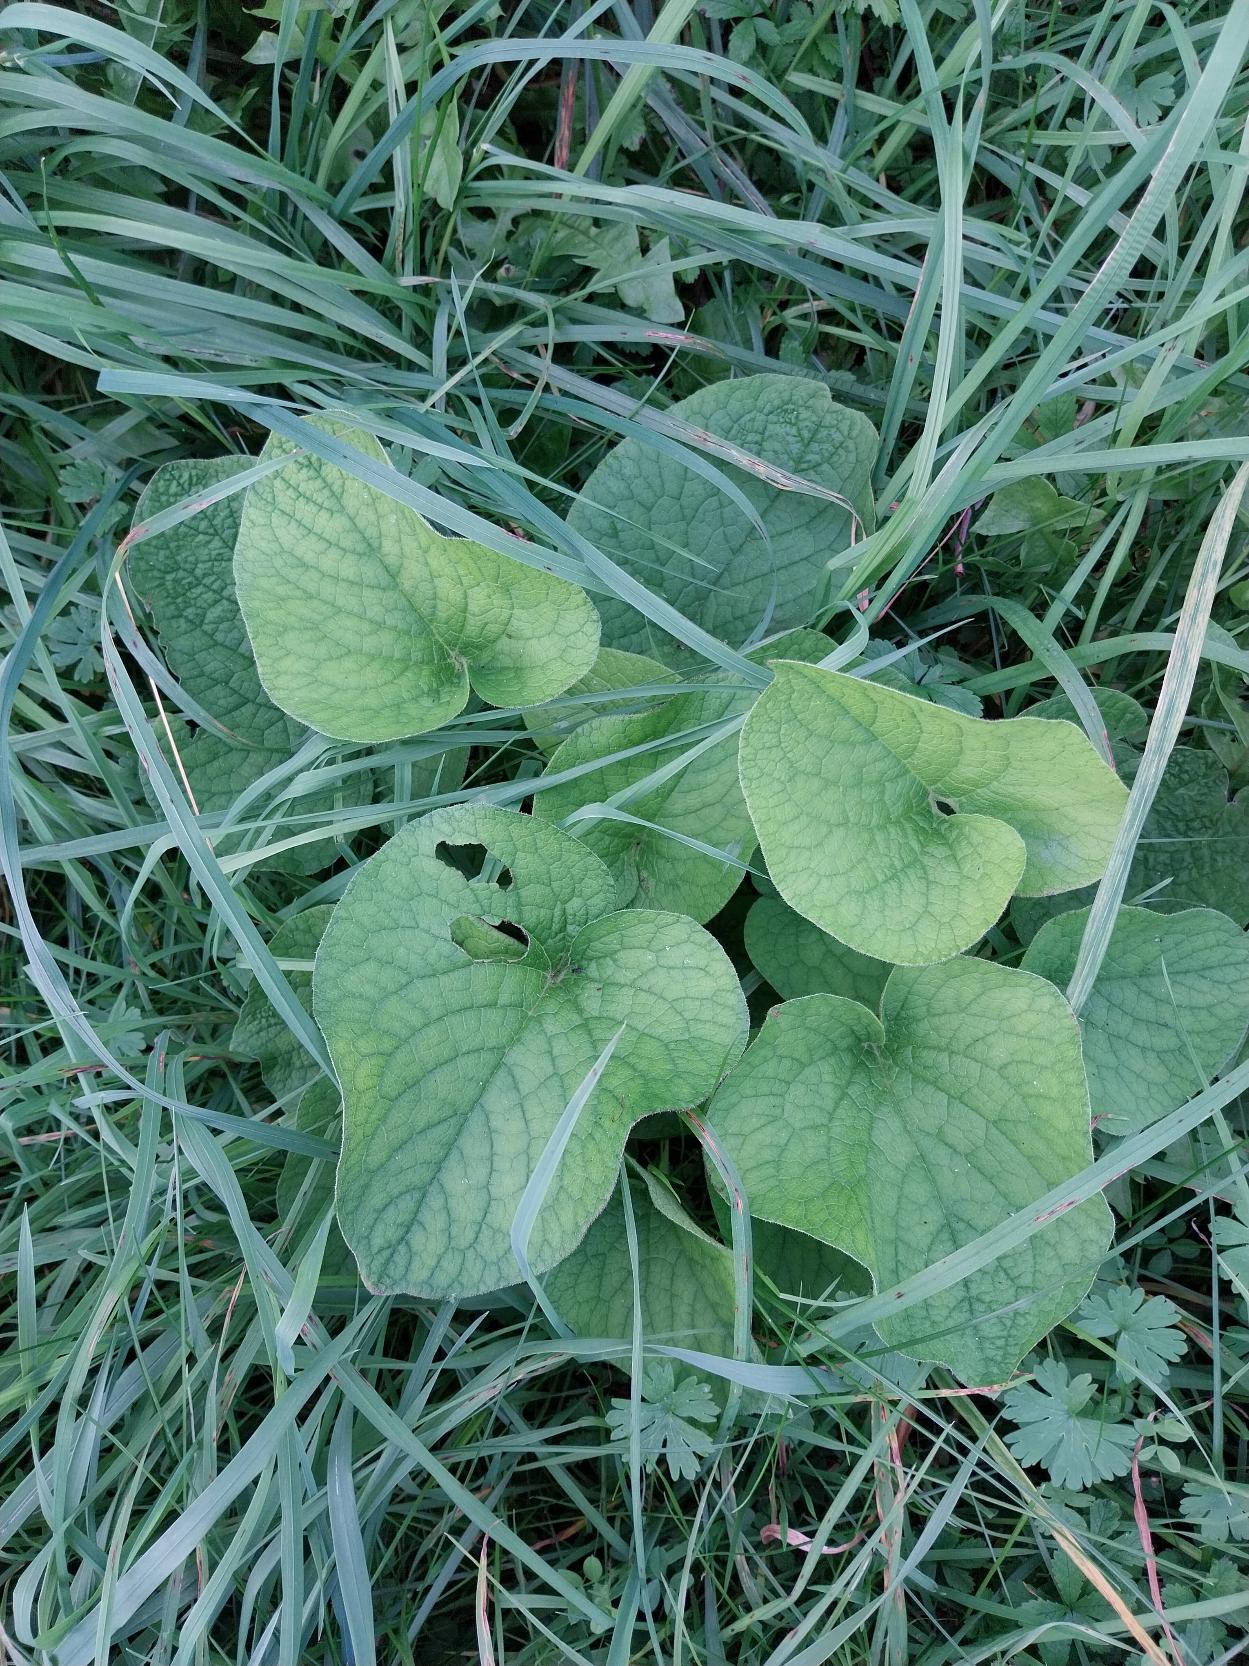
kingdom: Plantae
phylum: Tracheophyta
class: Magnoliopsida
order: Boraginales
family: Boraginaceae
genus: Brunnera
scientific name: Brunnera macrophylla
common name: Kærmindesøster
